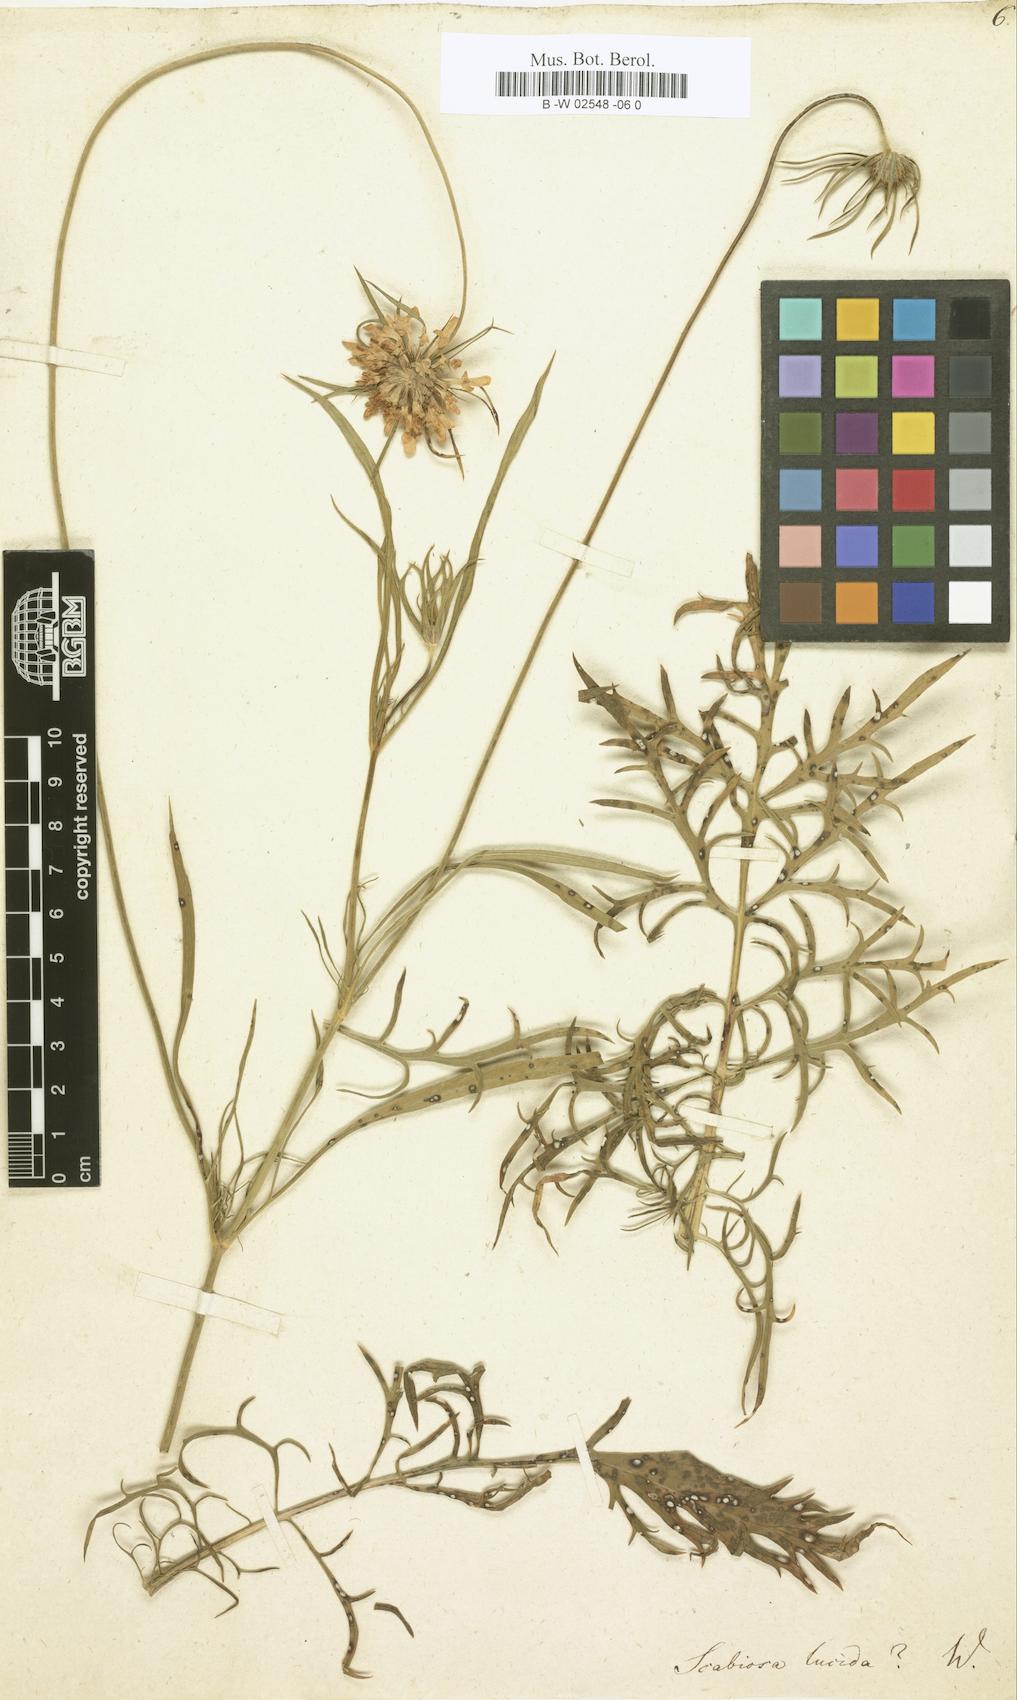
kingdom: Plantae
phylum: Tracheophyta
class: Magnoliopsida
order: Dipsacales
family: Caprifoliaceae
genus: Scabiosa
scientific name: Scabiosa lucida
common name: Shining scabious
